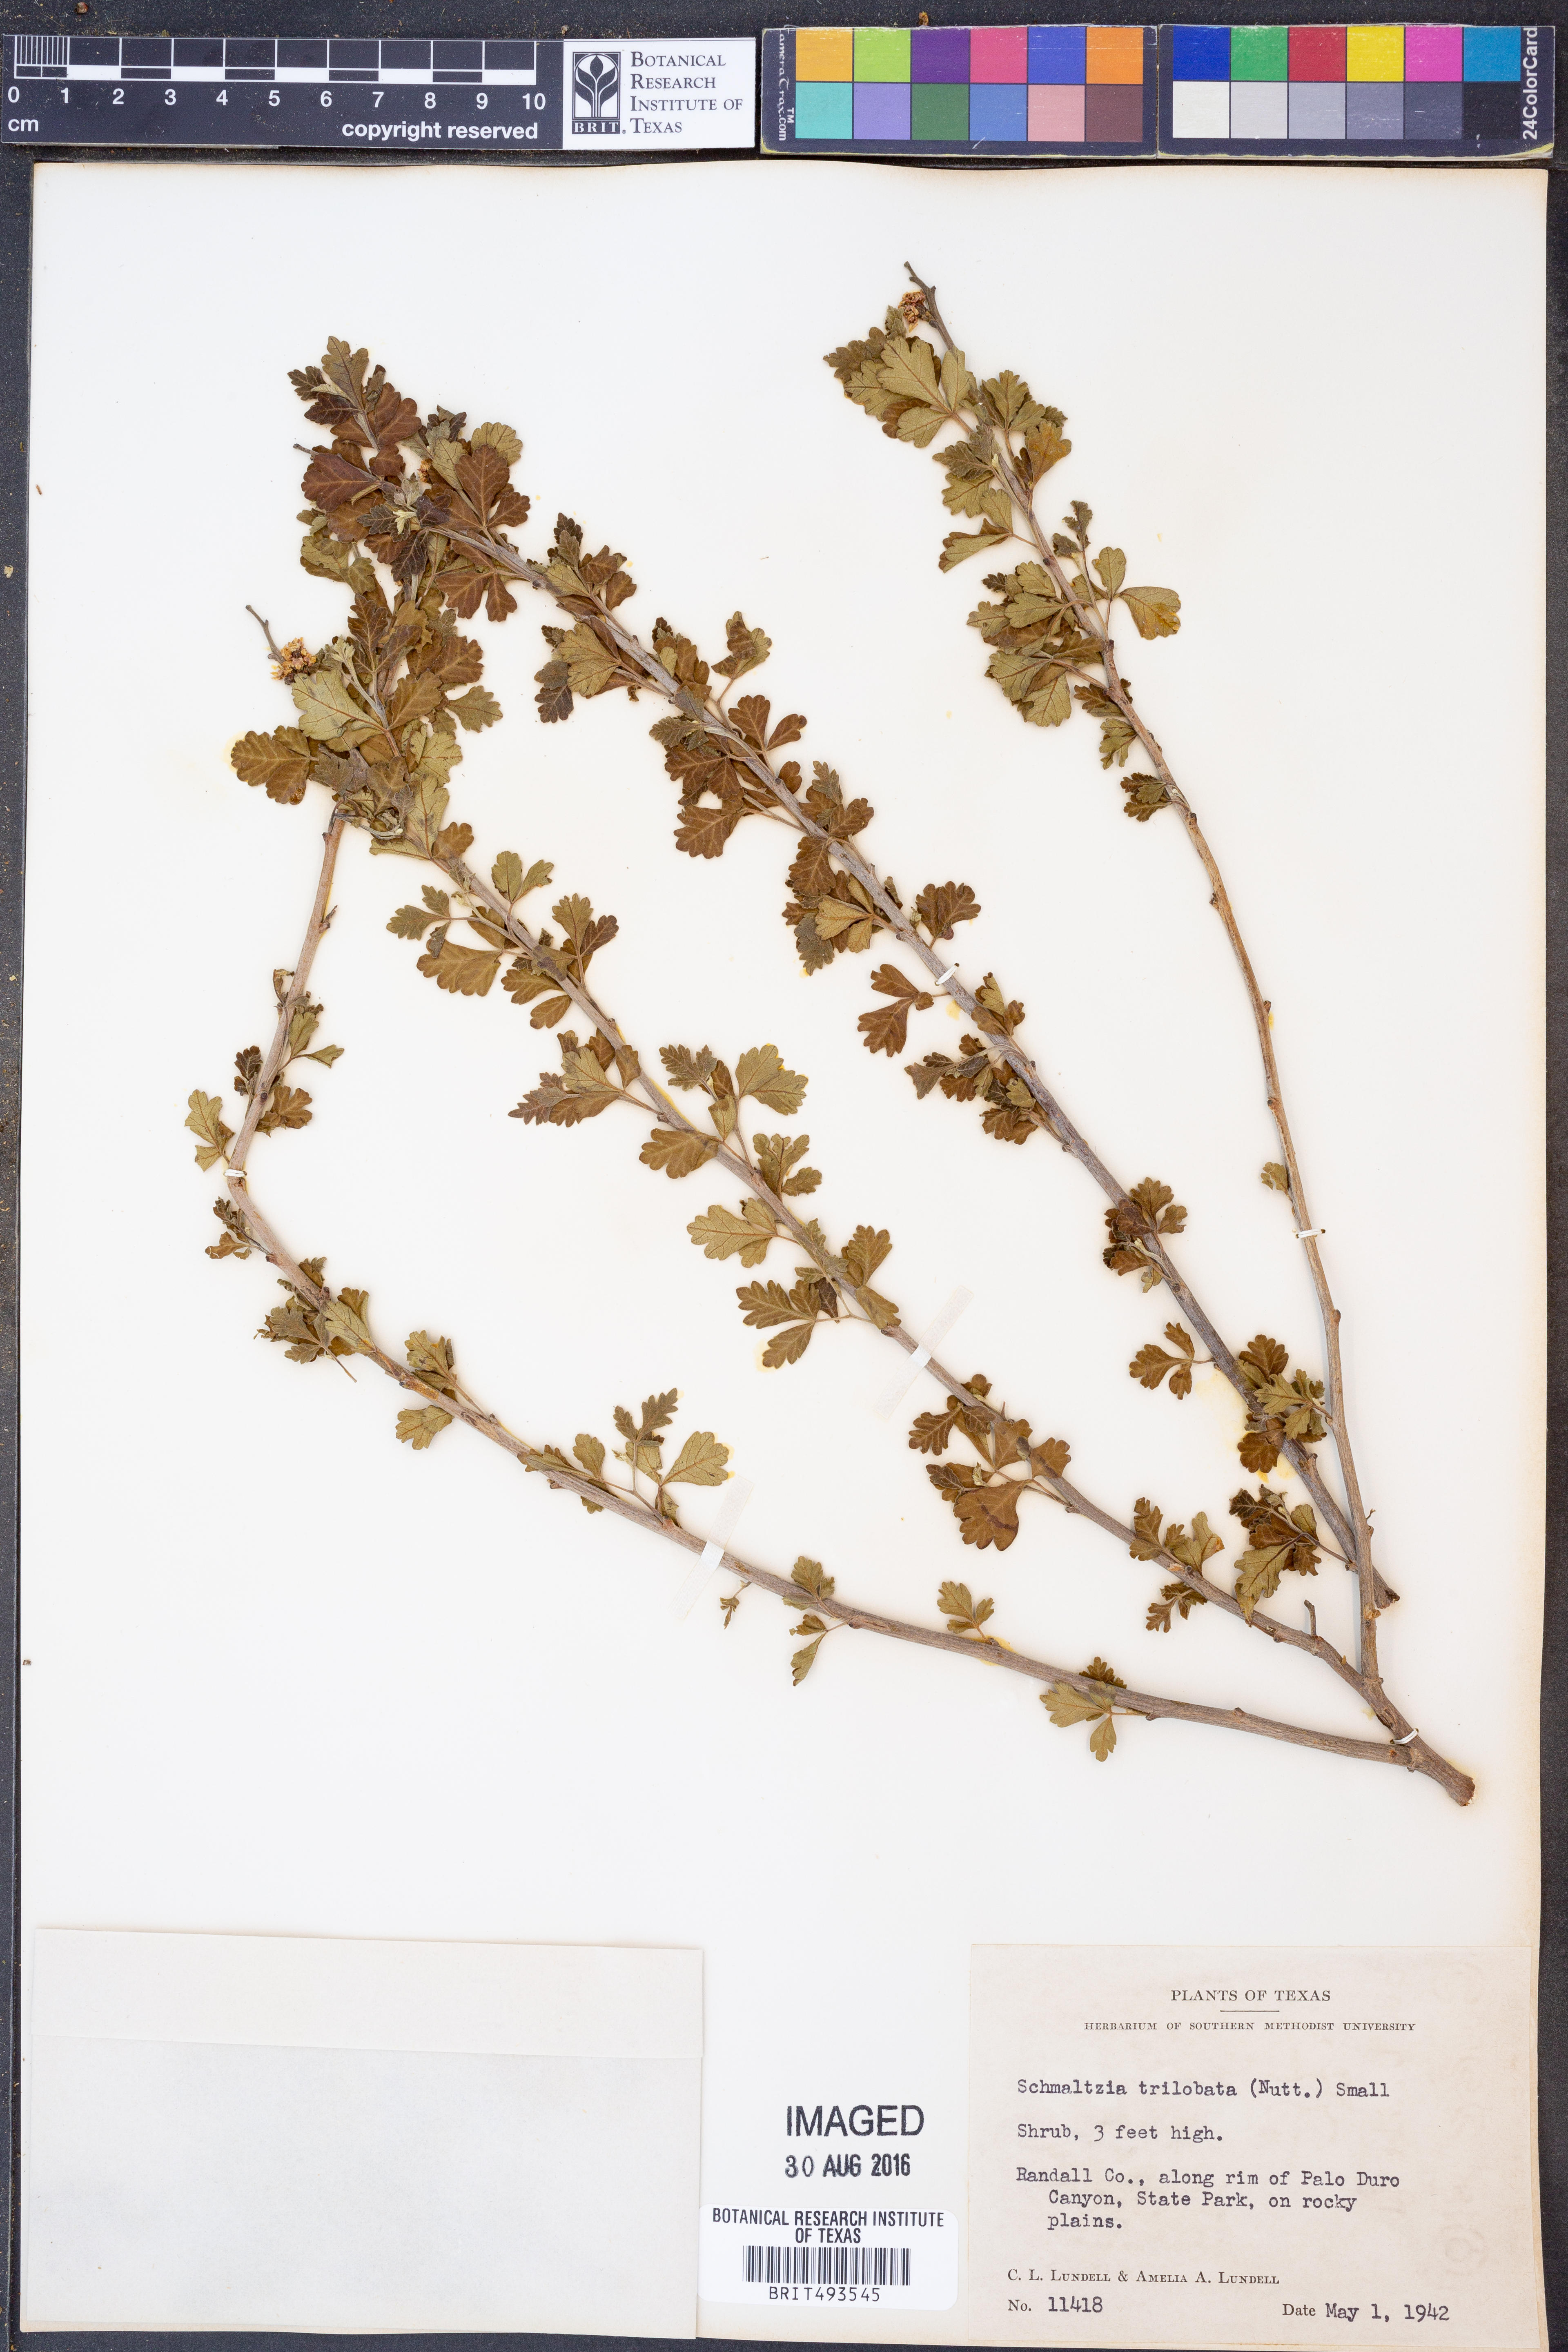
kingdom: Plantae
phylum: Tracheophyta
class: Magnoliopsida
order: Sapindales
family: Anacardiaceae
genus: Rhus
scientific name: Rhus trilobata
